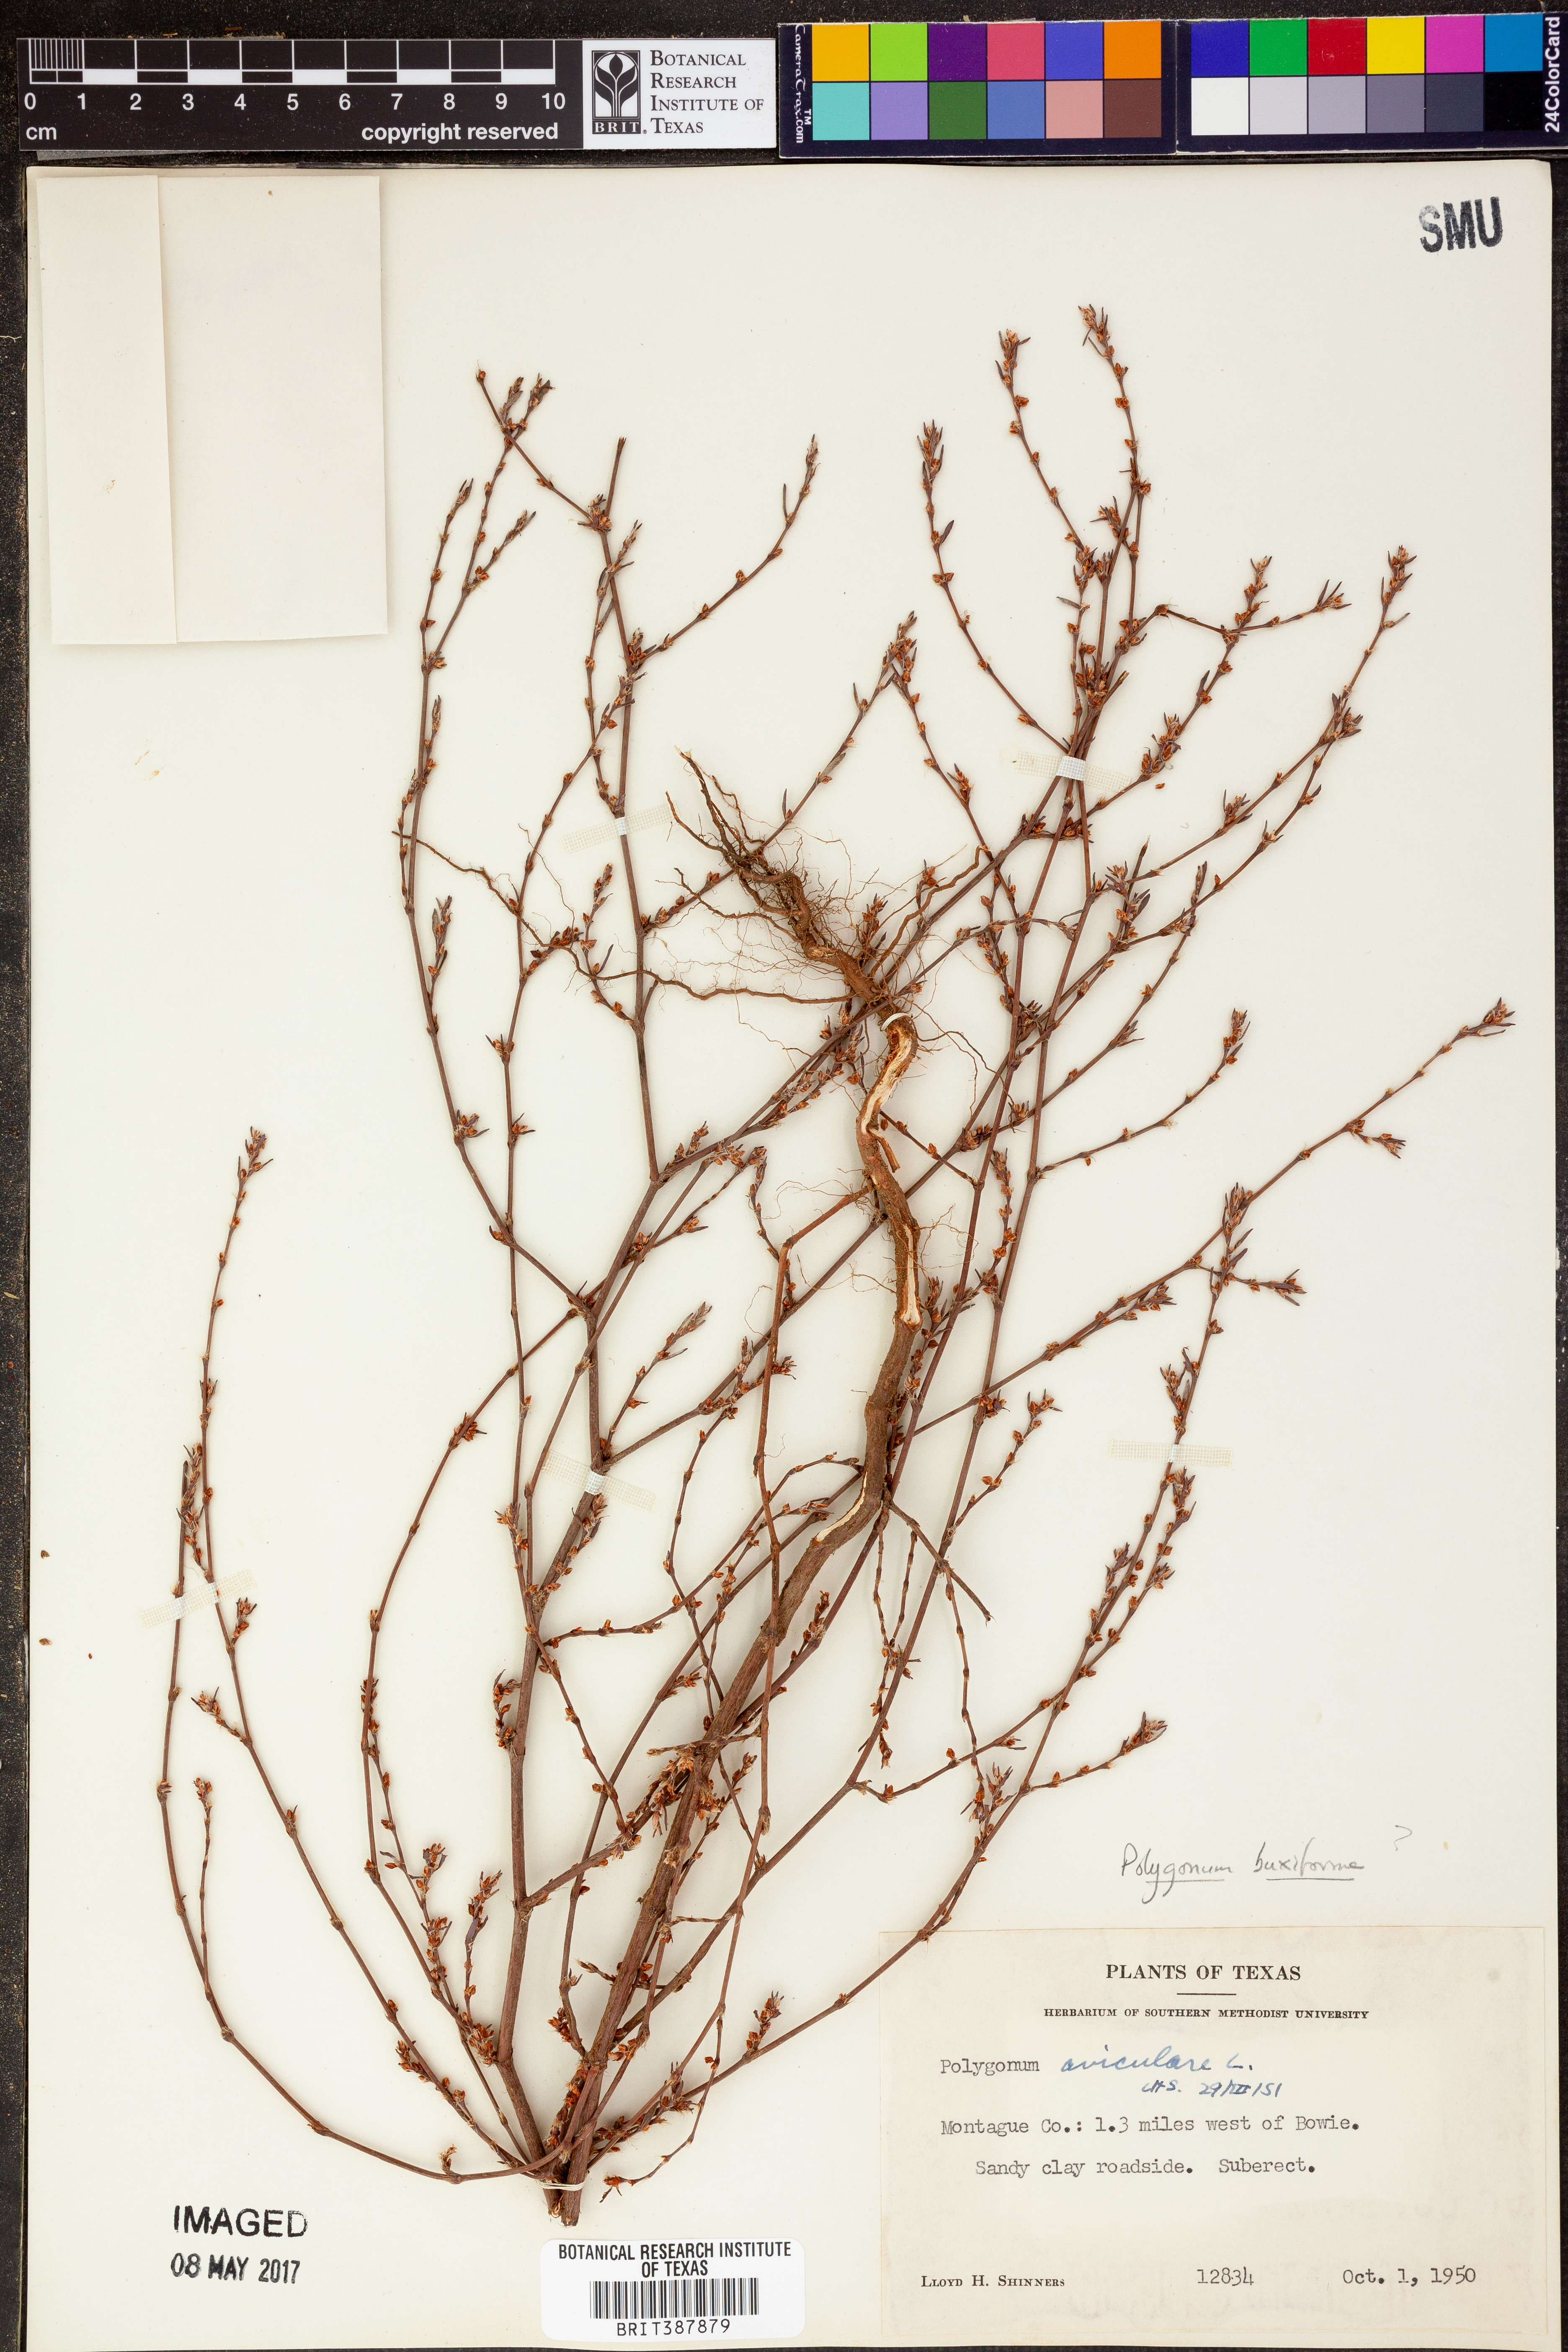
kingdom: Plantae
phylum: Tracheophyta
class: Magnoliopsida
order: Caryophyllales
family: Polygonaceae
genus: Polygonum
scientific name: Polygonum aviculare
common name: Prostrate knotweed
